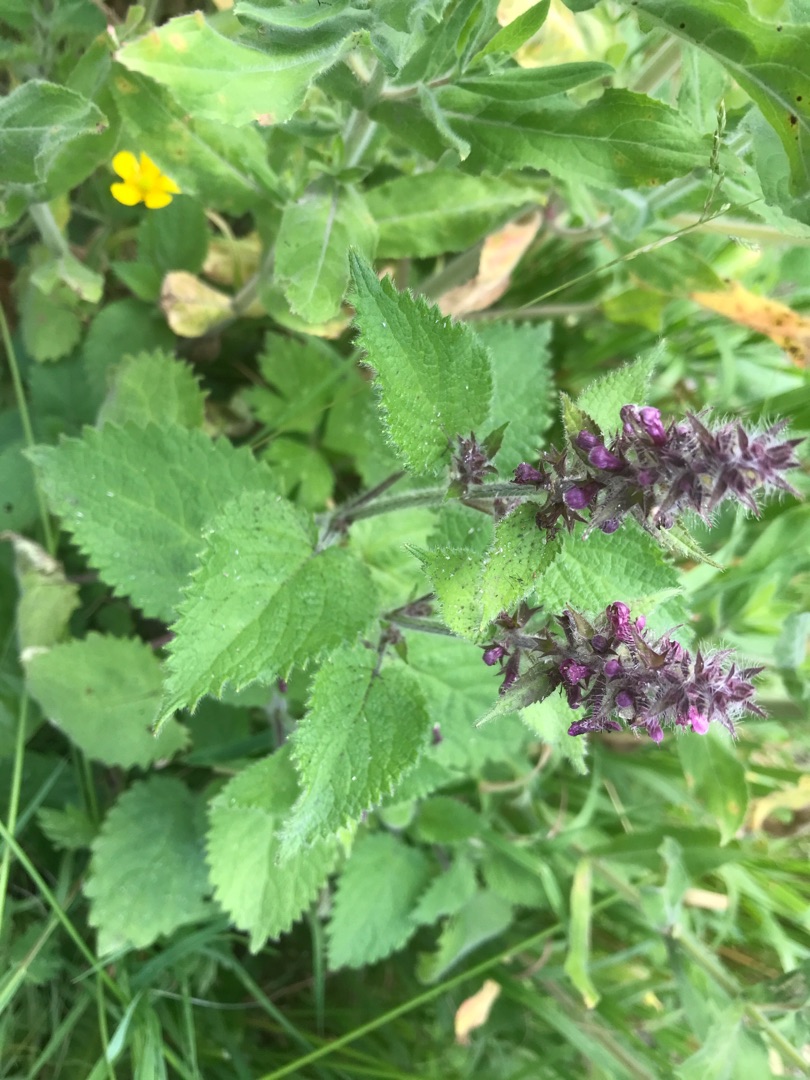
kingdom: Plantae
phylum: Tracheophyta
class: Magnoliopsida
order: Lamiales
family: Lamiaceae
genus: Stachys
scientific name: Stachys sylvatica
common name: Skov-galtetand
